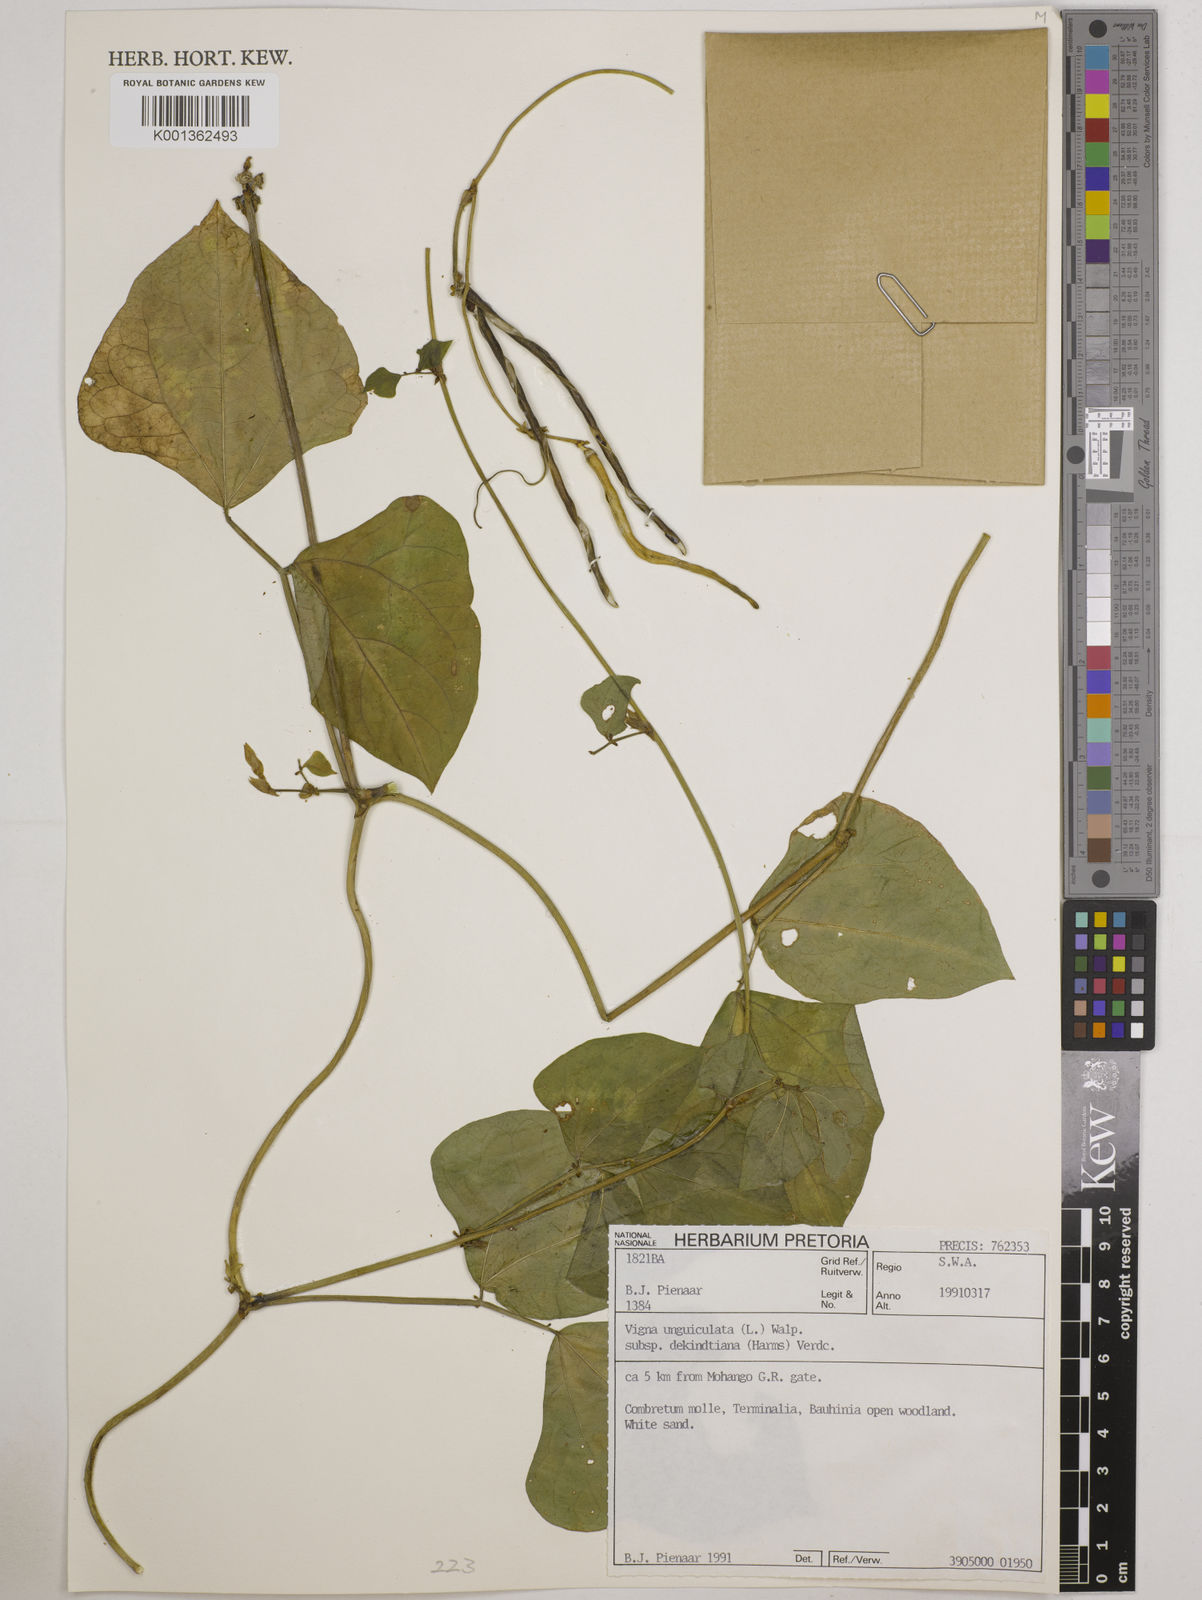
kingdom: Plantae
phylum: Tracheophyta
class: Magnoliopsida
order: Fabales
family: Fabaceae
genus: Vigna
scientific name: Vigna
